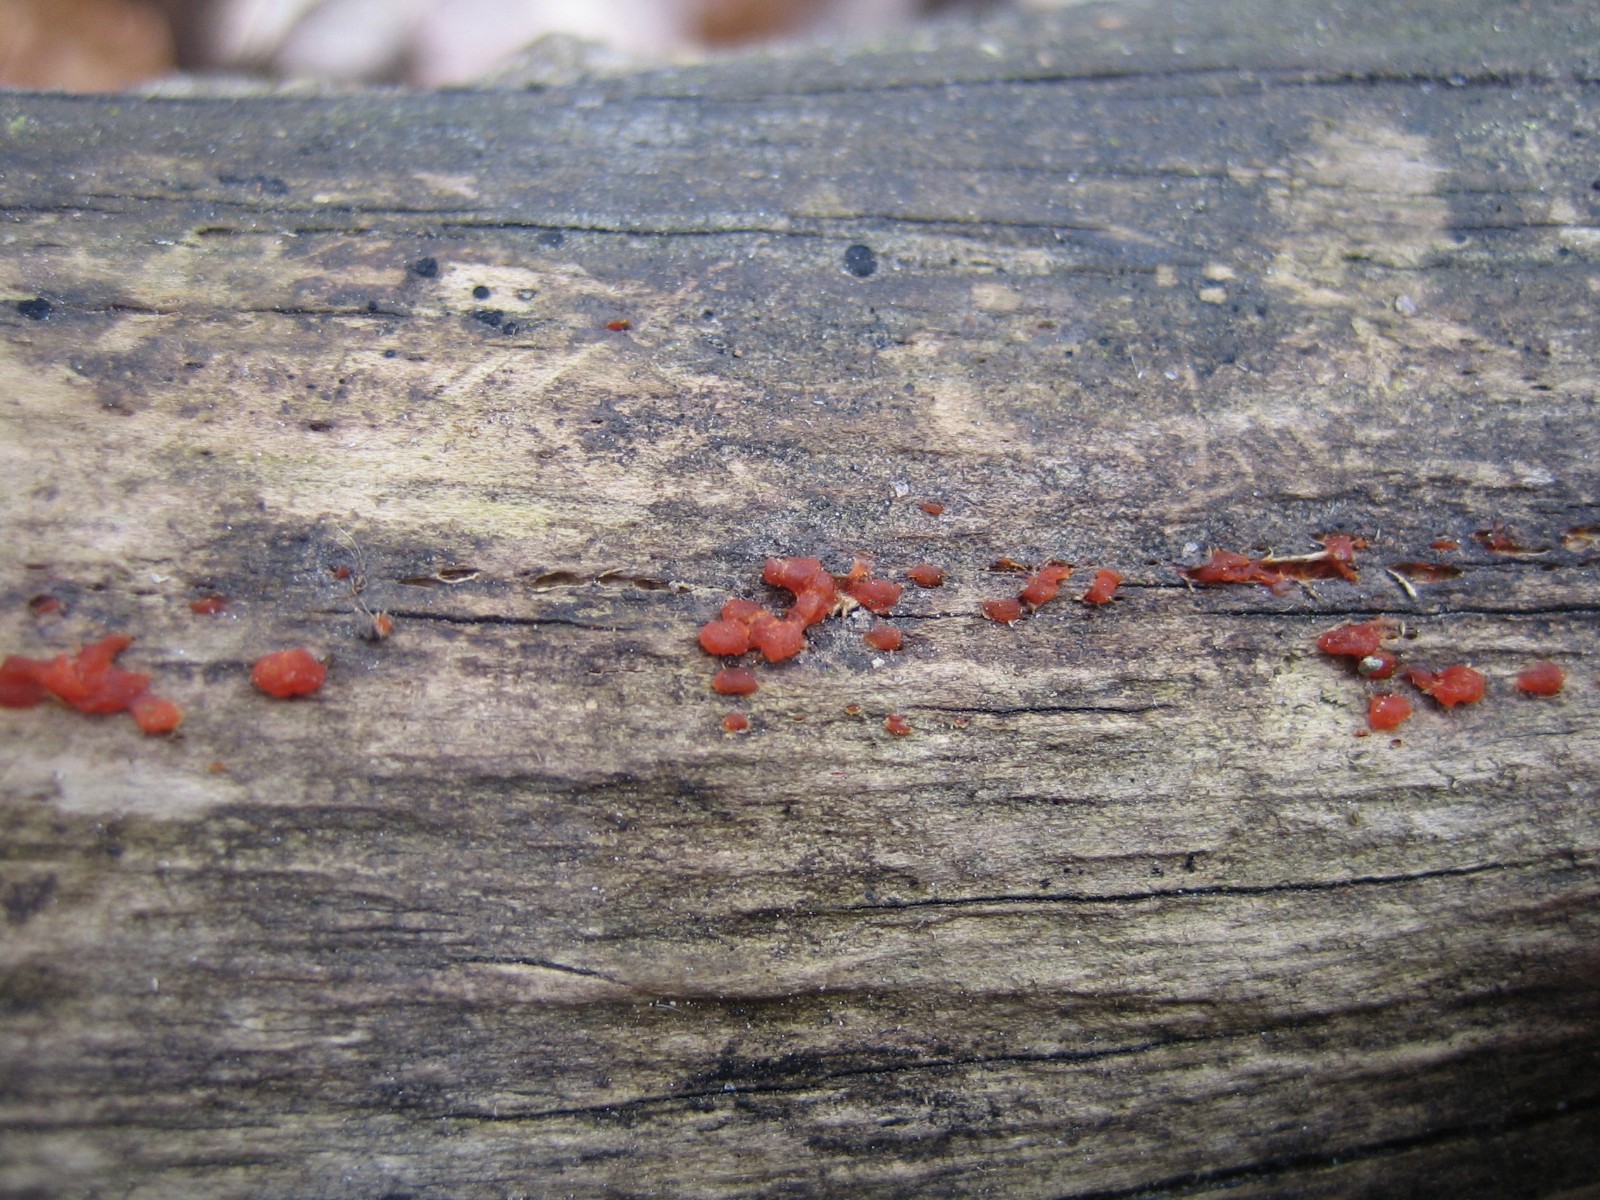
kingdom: Fungi
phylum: Basidiomycota
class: Dacrymycetes
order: Dacrymycetales
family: Dacrymycetaceae
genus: Dacrymyces
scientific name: Dacrymyces stillatus
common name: almindelig tåresvamp
